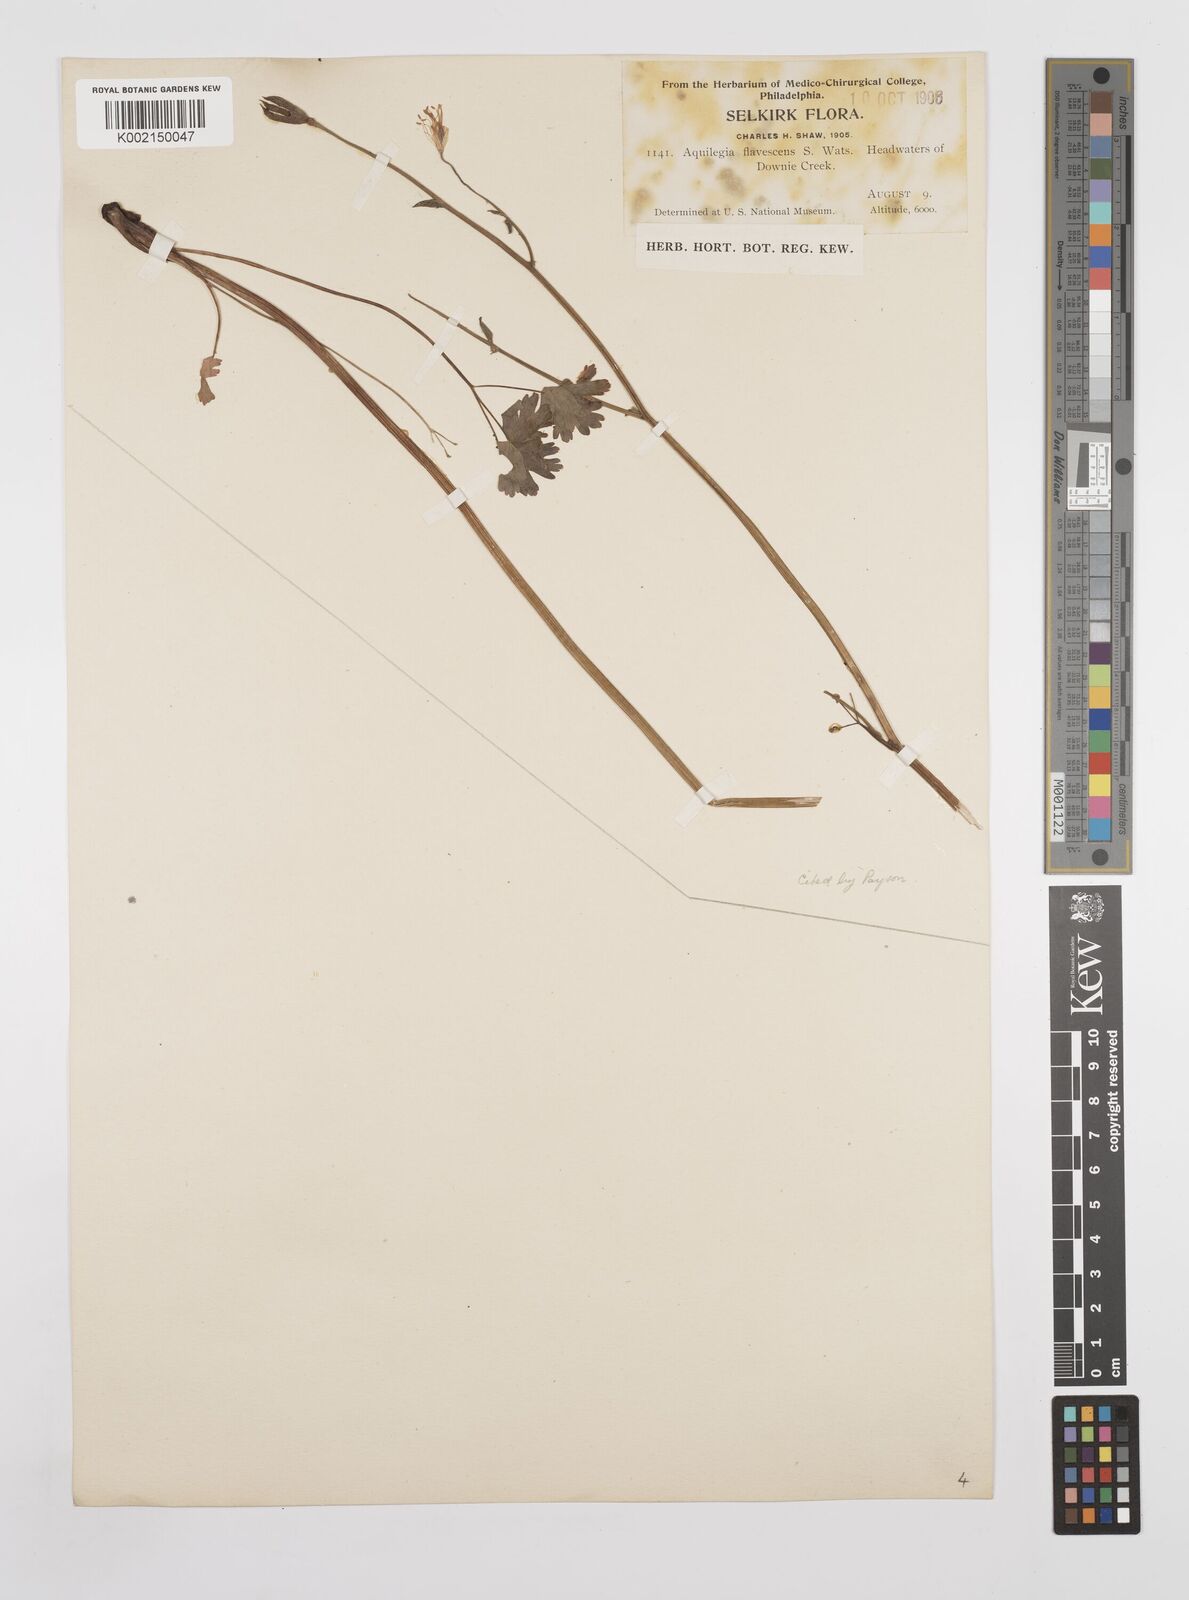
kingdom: Plantae
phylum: Tracheophyta
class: Magnoliopsida
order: Ranunculales
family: Ranunculaceae
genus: Aquilegia
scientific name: Aquilegia flavescens
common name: Yellow columbine
